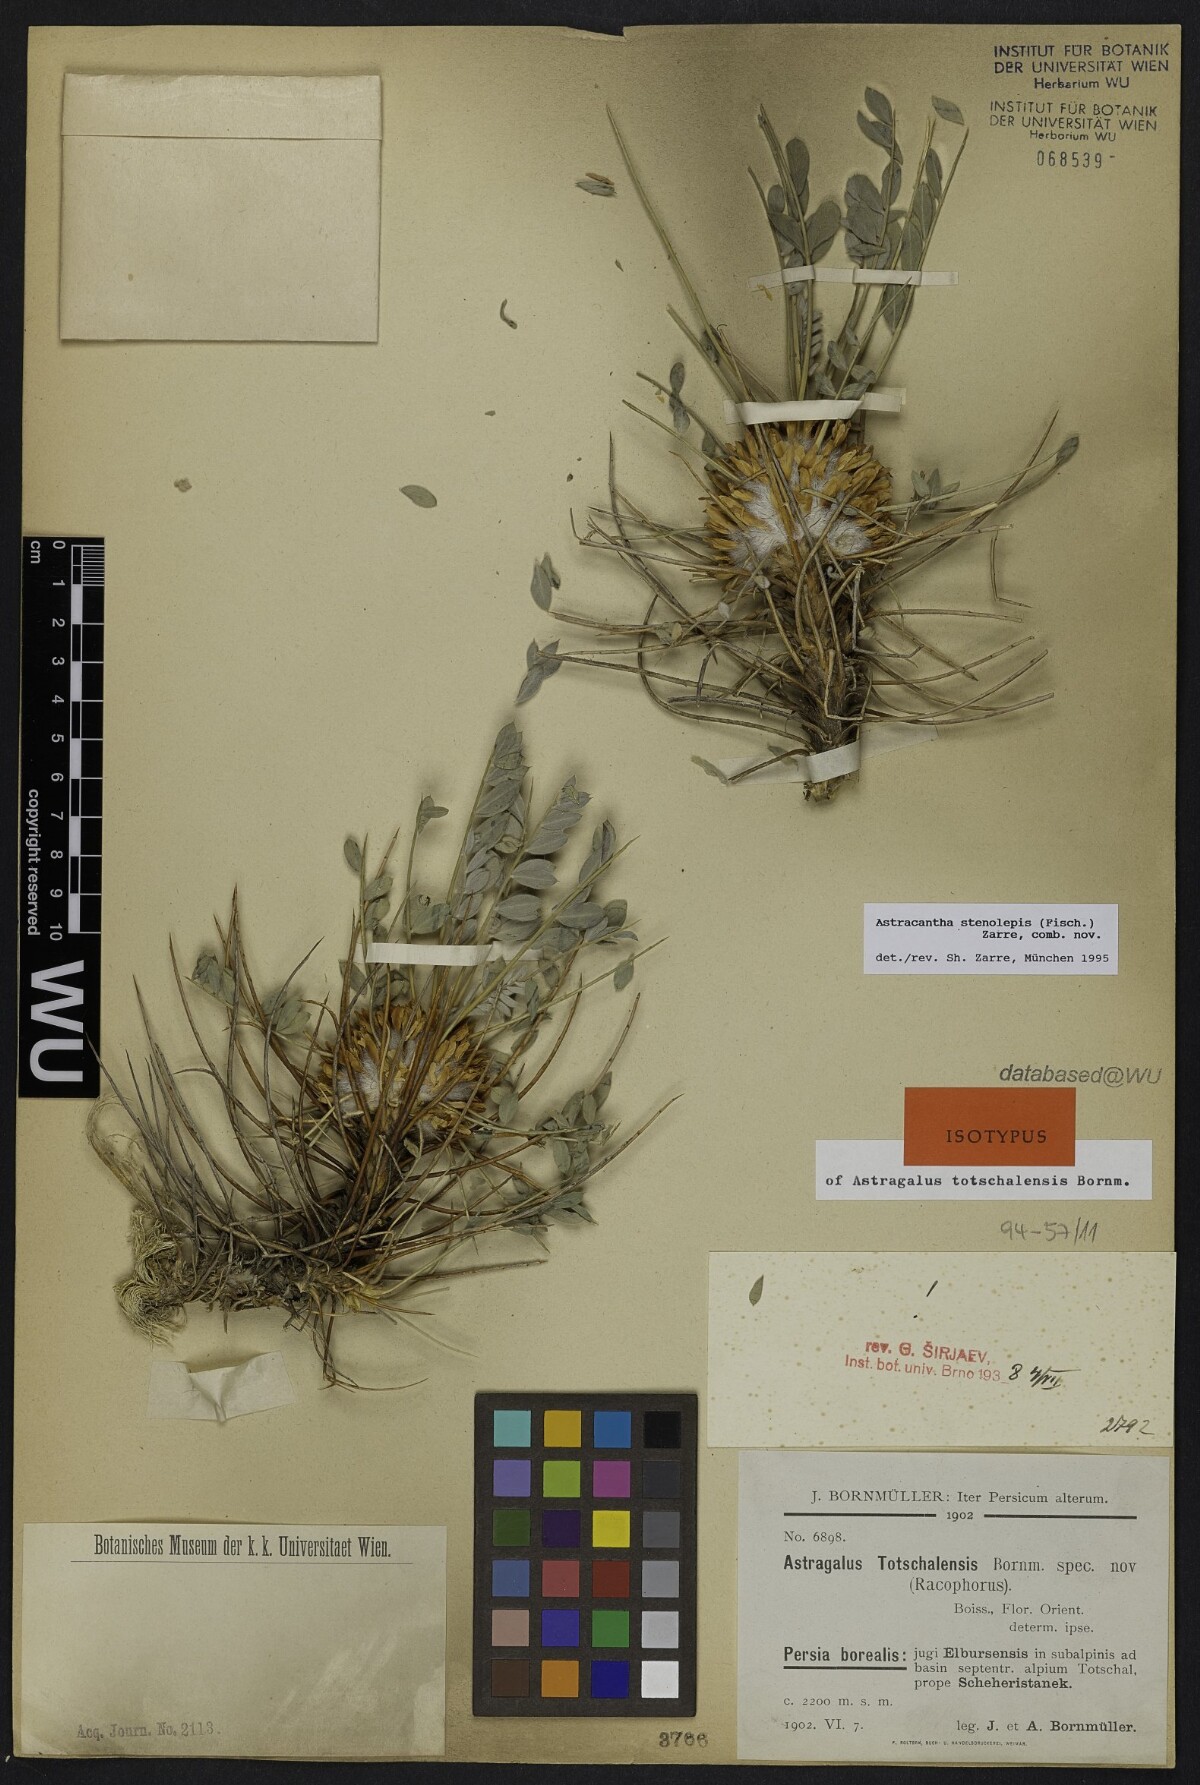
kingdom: Plantae
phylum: Tracheophyta
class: Magnoliopsida
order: Fabales
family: Fabaceae
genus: Astragalus
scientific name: Astragalus stenolepis
